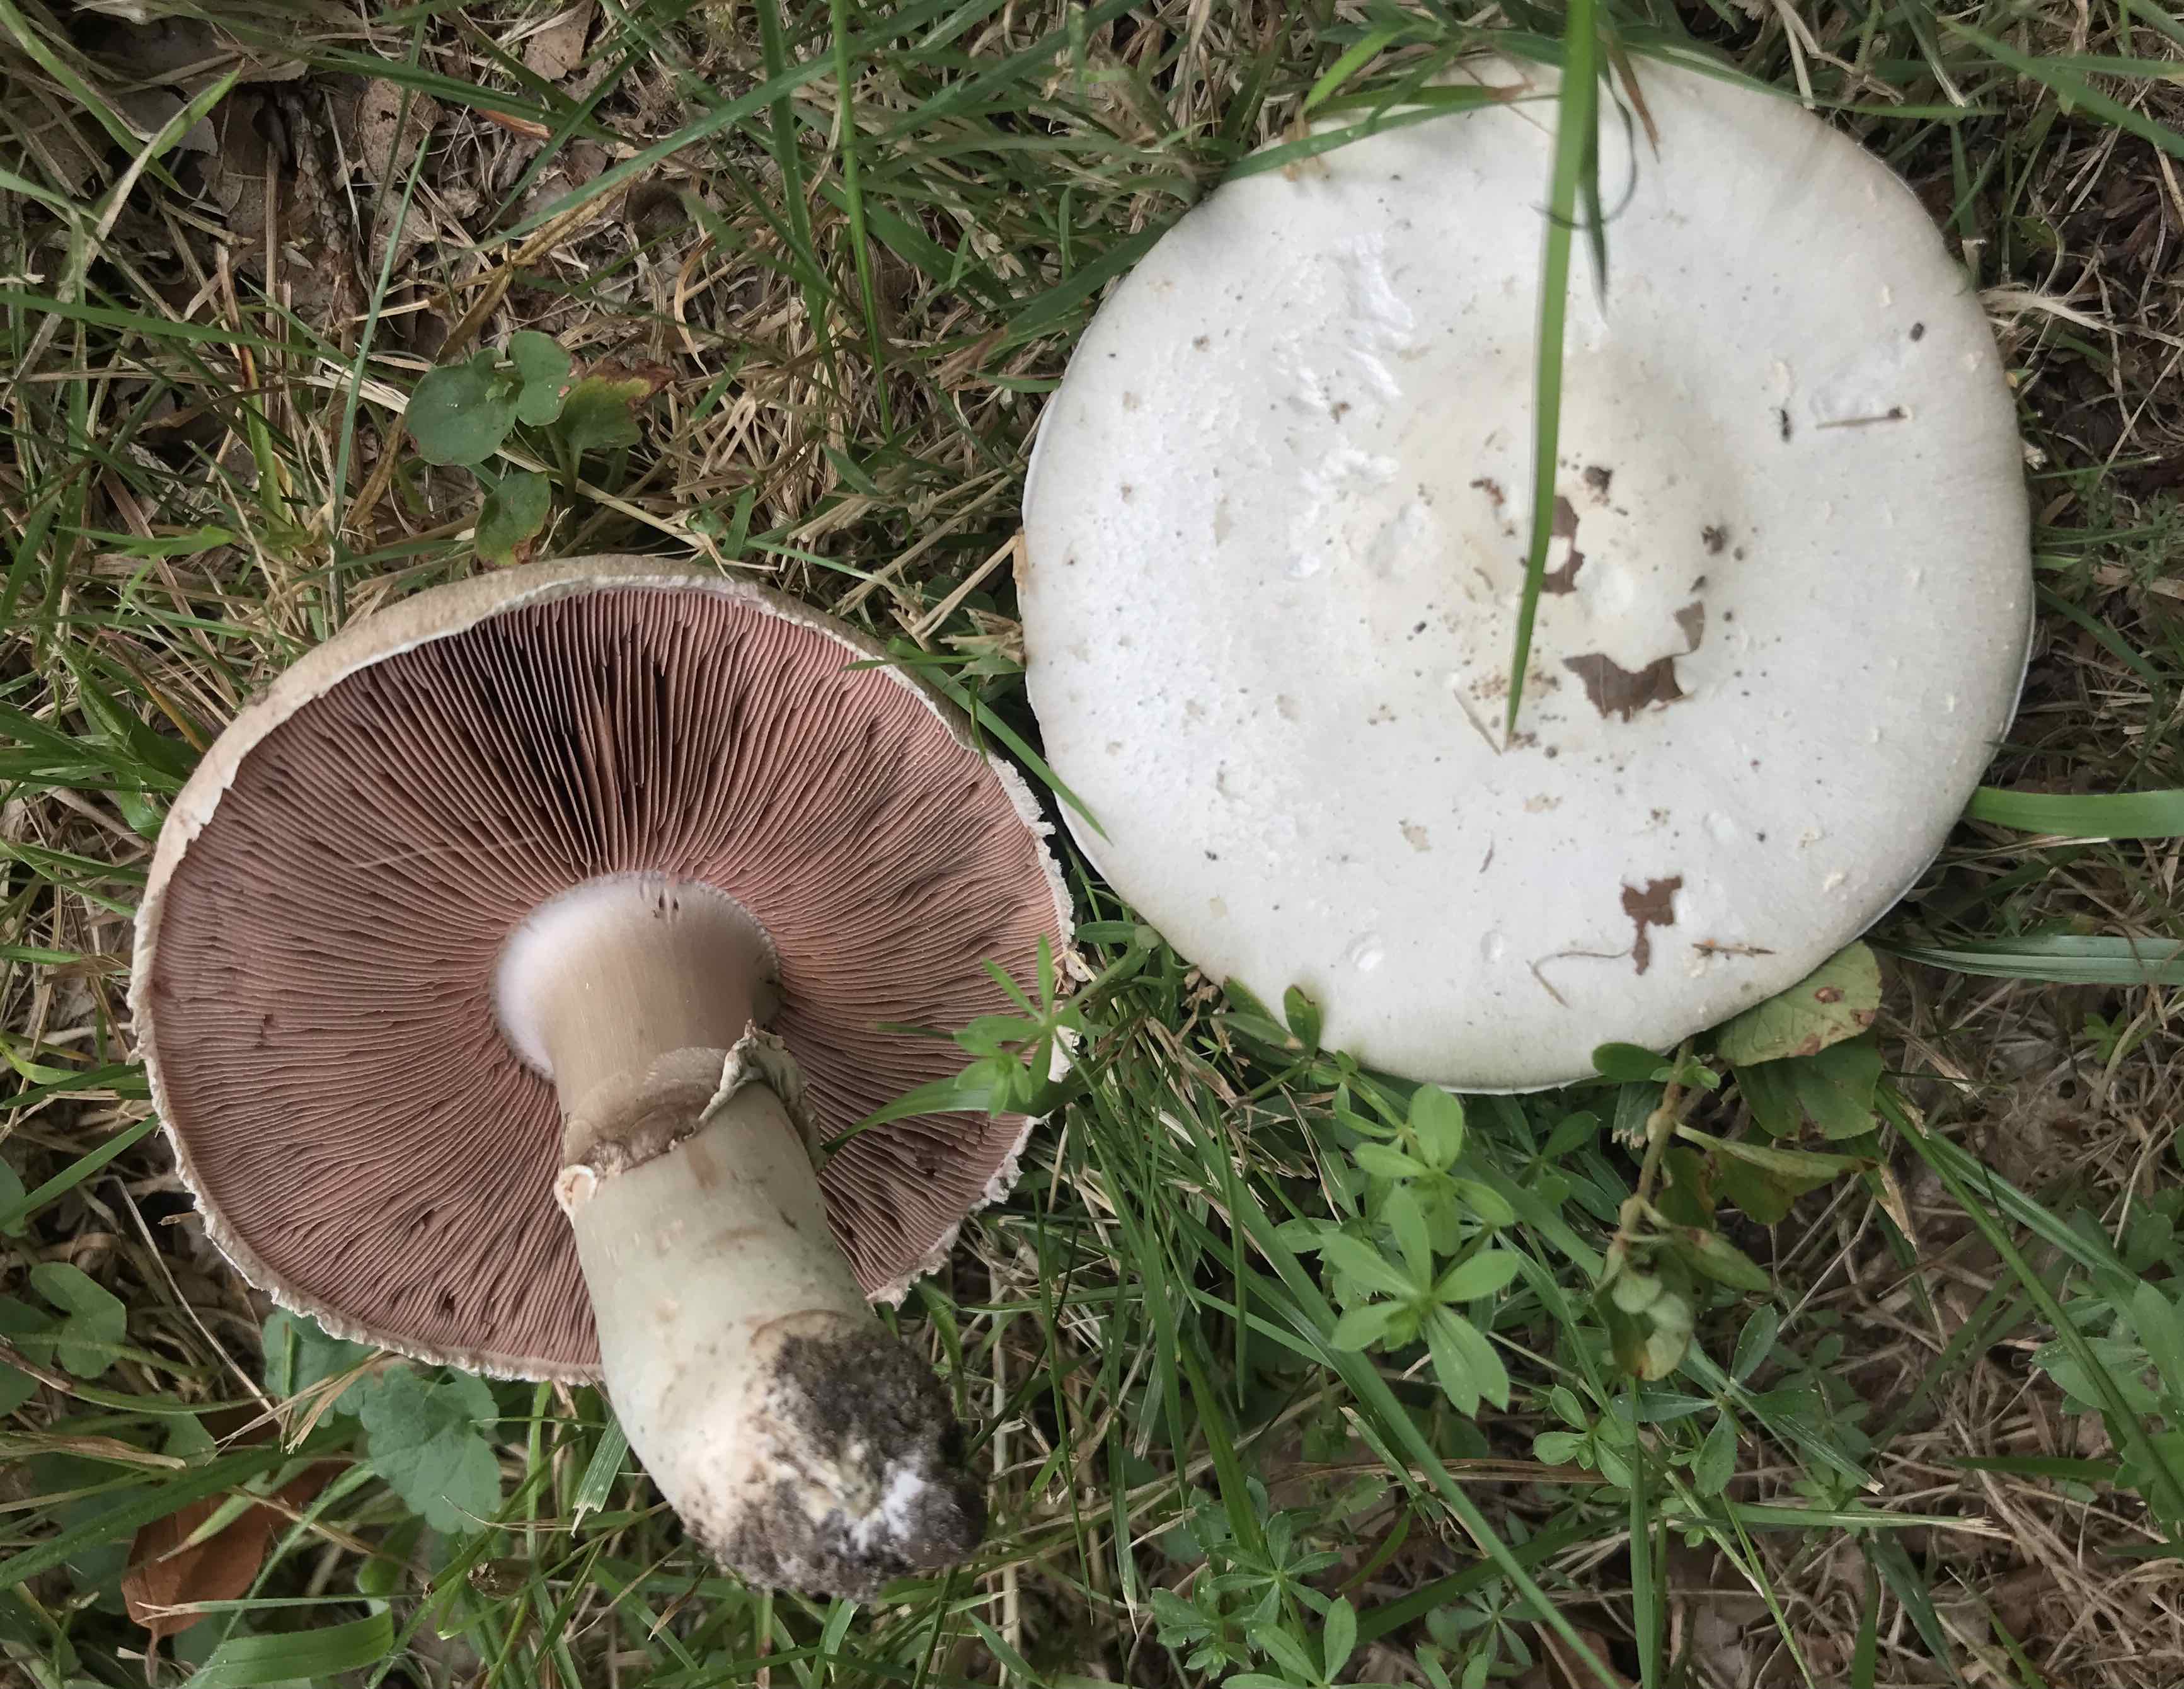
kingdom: Fungi
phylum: Basidiomycota
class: Agaricomycetes
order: Agaricales
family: Agaricaceae
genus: Agaricus
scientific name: Agaricus campestris
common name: mark-champignon
